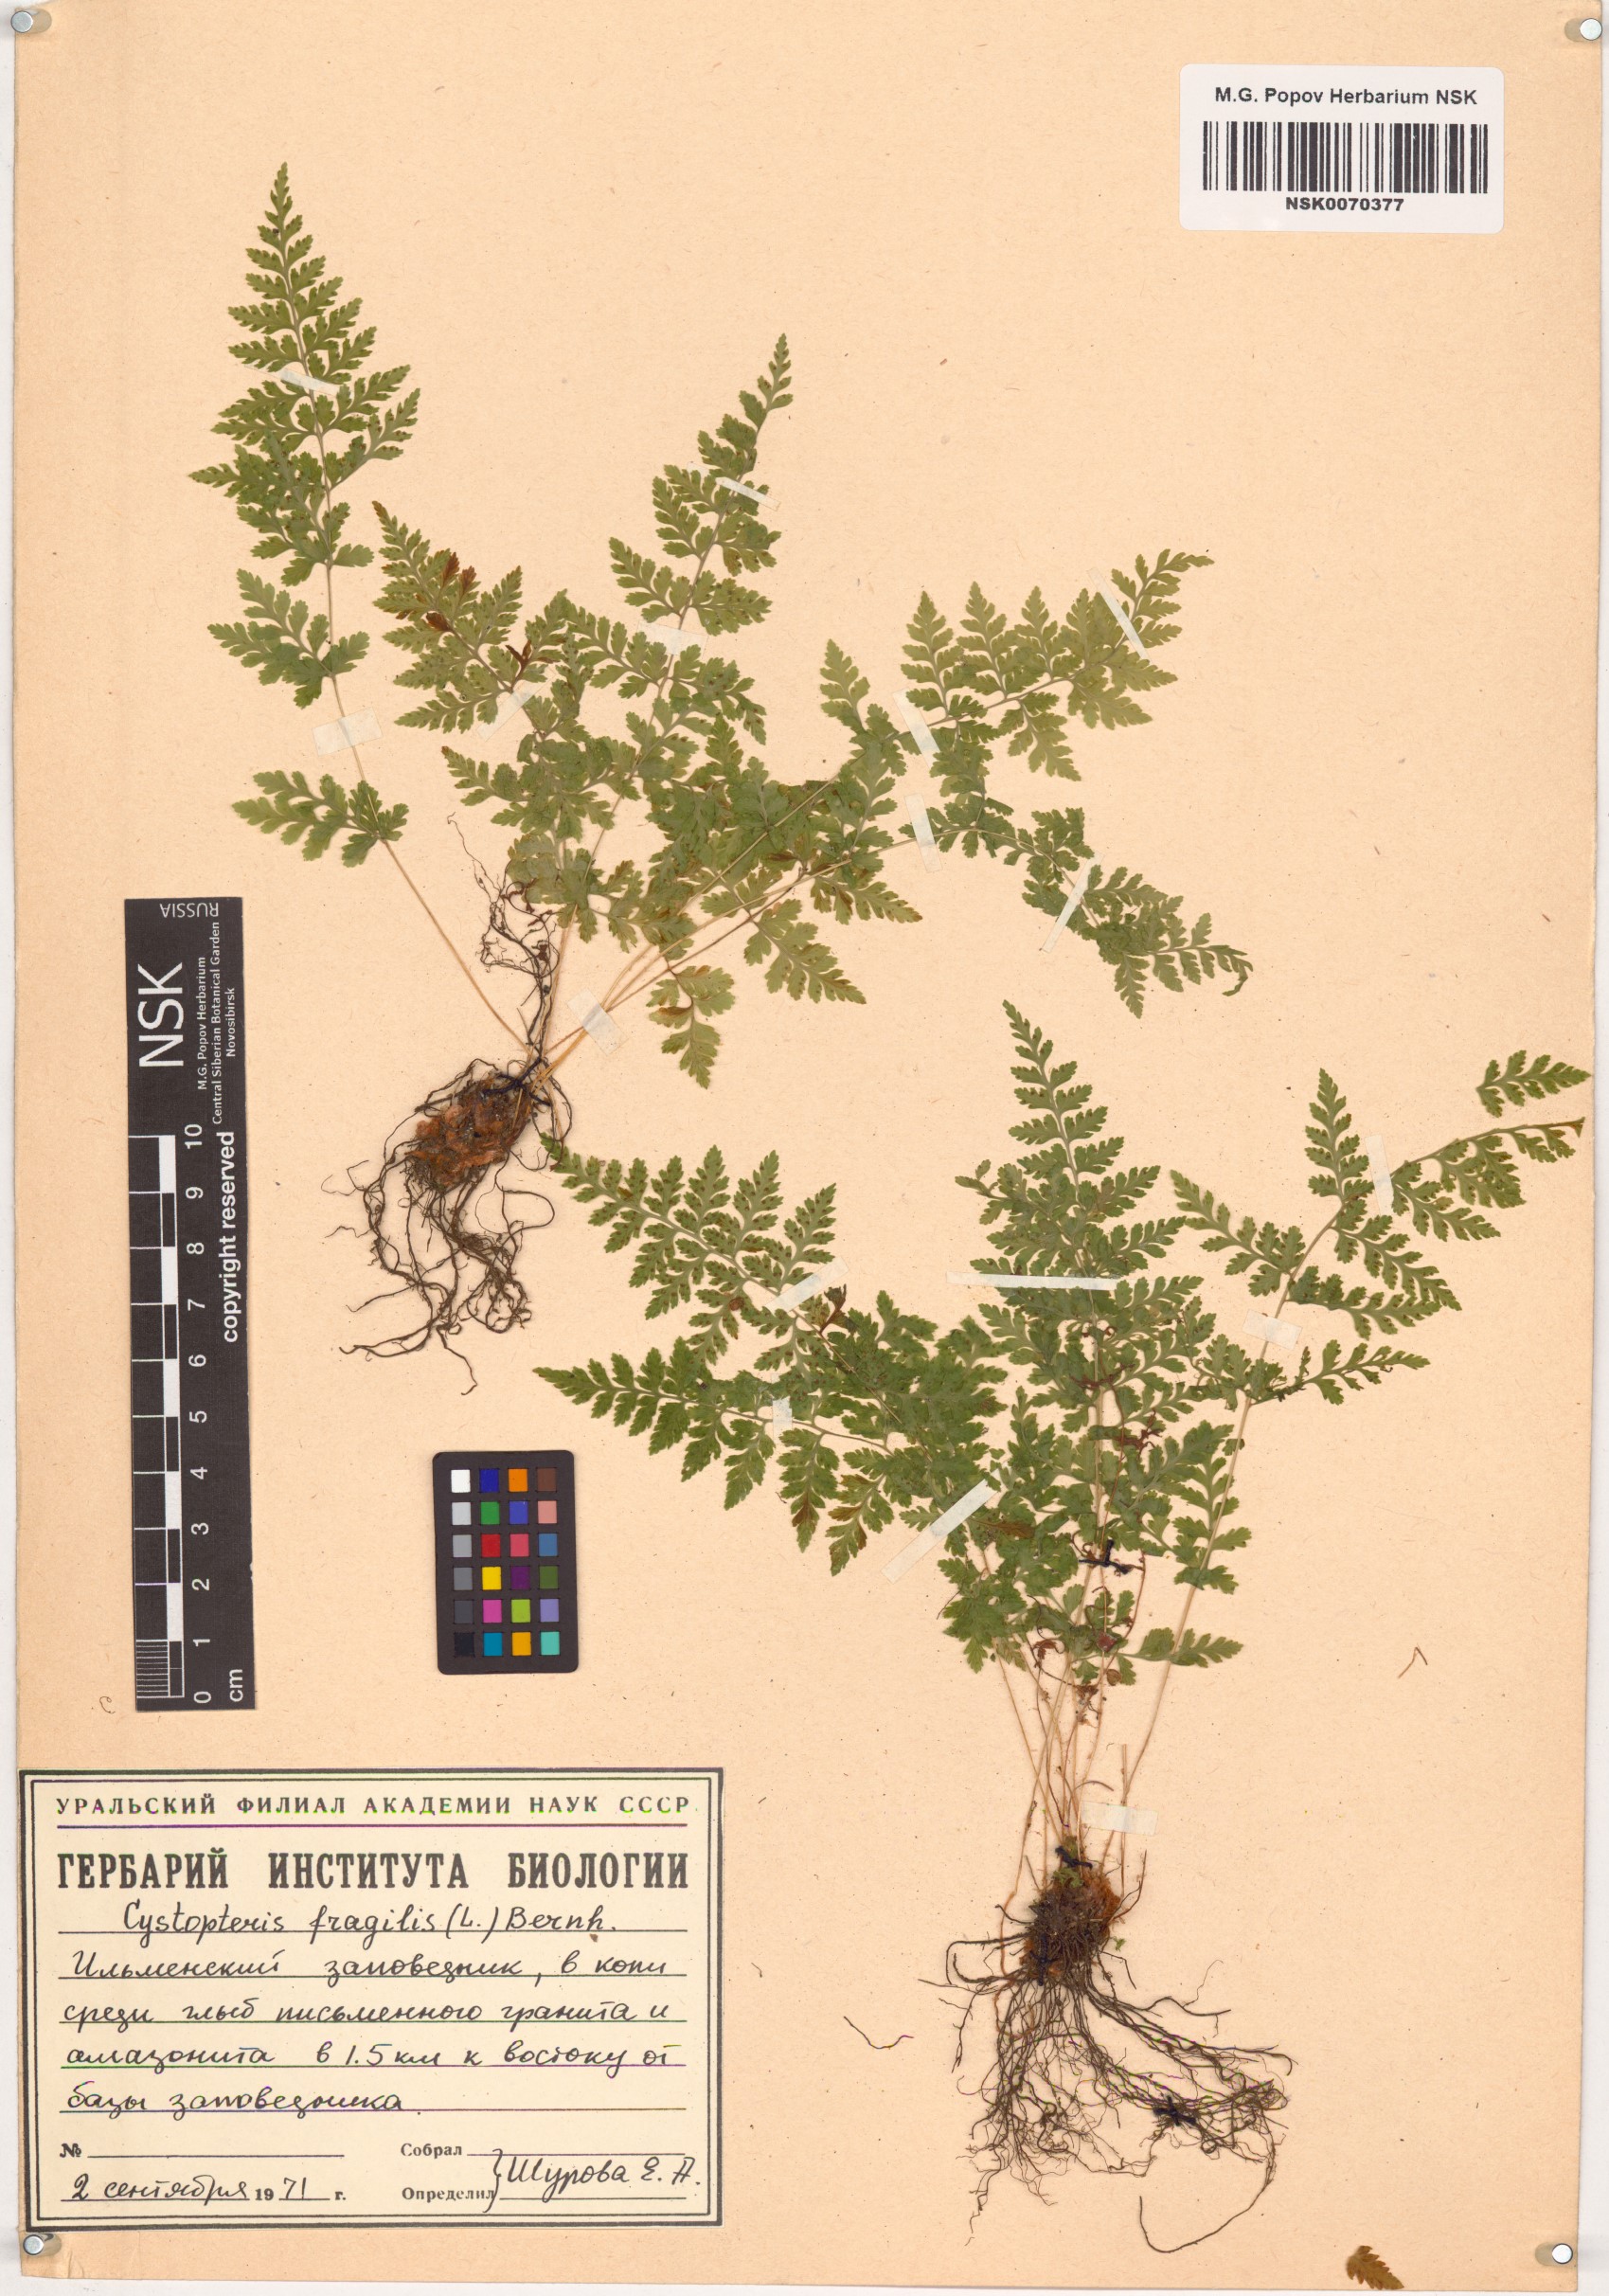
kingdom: Plantae
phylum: Tracheophyta
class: Polypodiopsida
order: Polypodiales
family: Cystopteridaceae
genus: Cystopteris
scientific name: Cystopteris fragilis
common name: Brittle bladder fern
